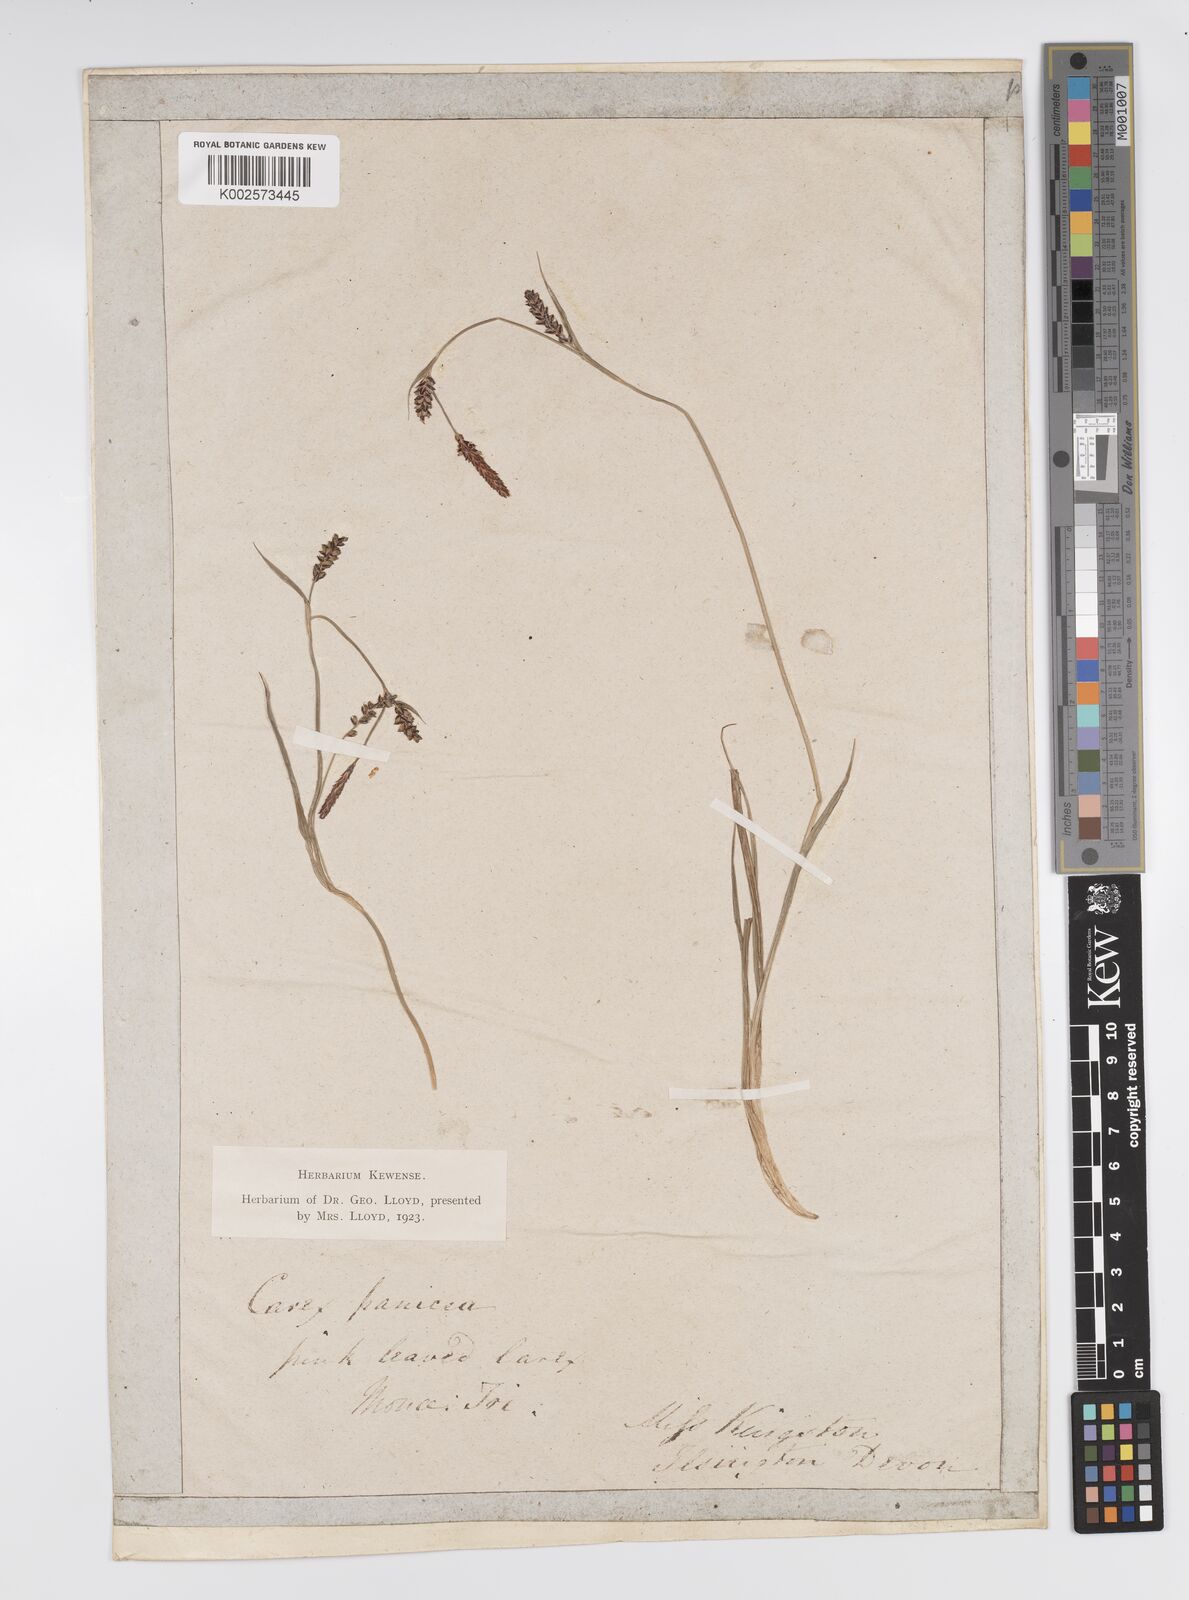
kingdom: Plantae
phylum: Tracheophyta
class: Liliopsida
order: Poales
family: Cyperaceae
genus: Carex
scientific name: Carex panicea
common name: Carnation sedge
